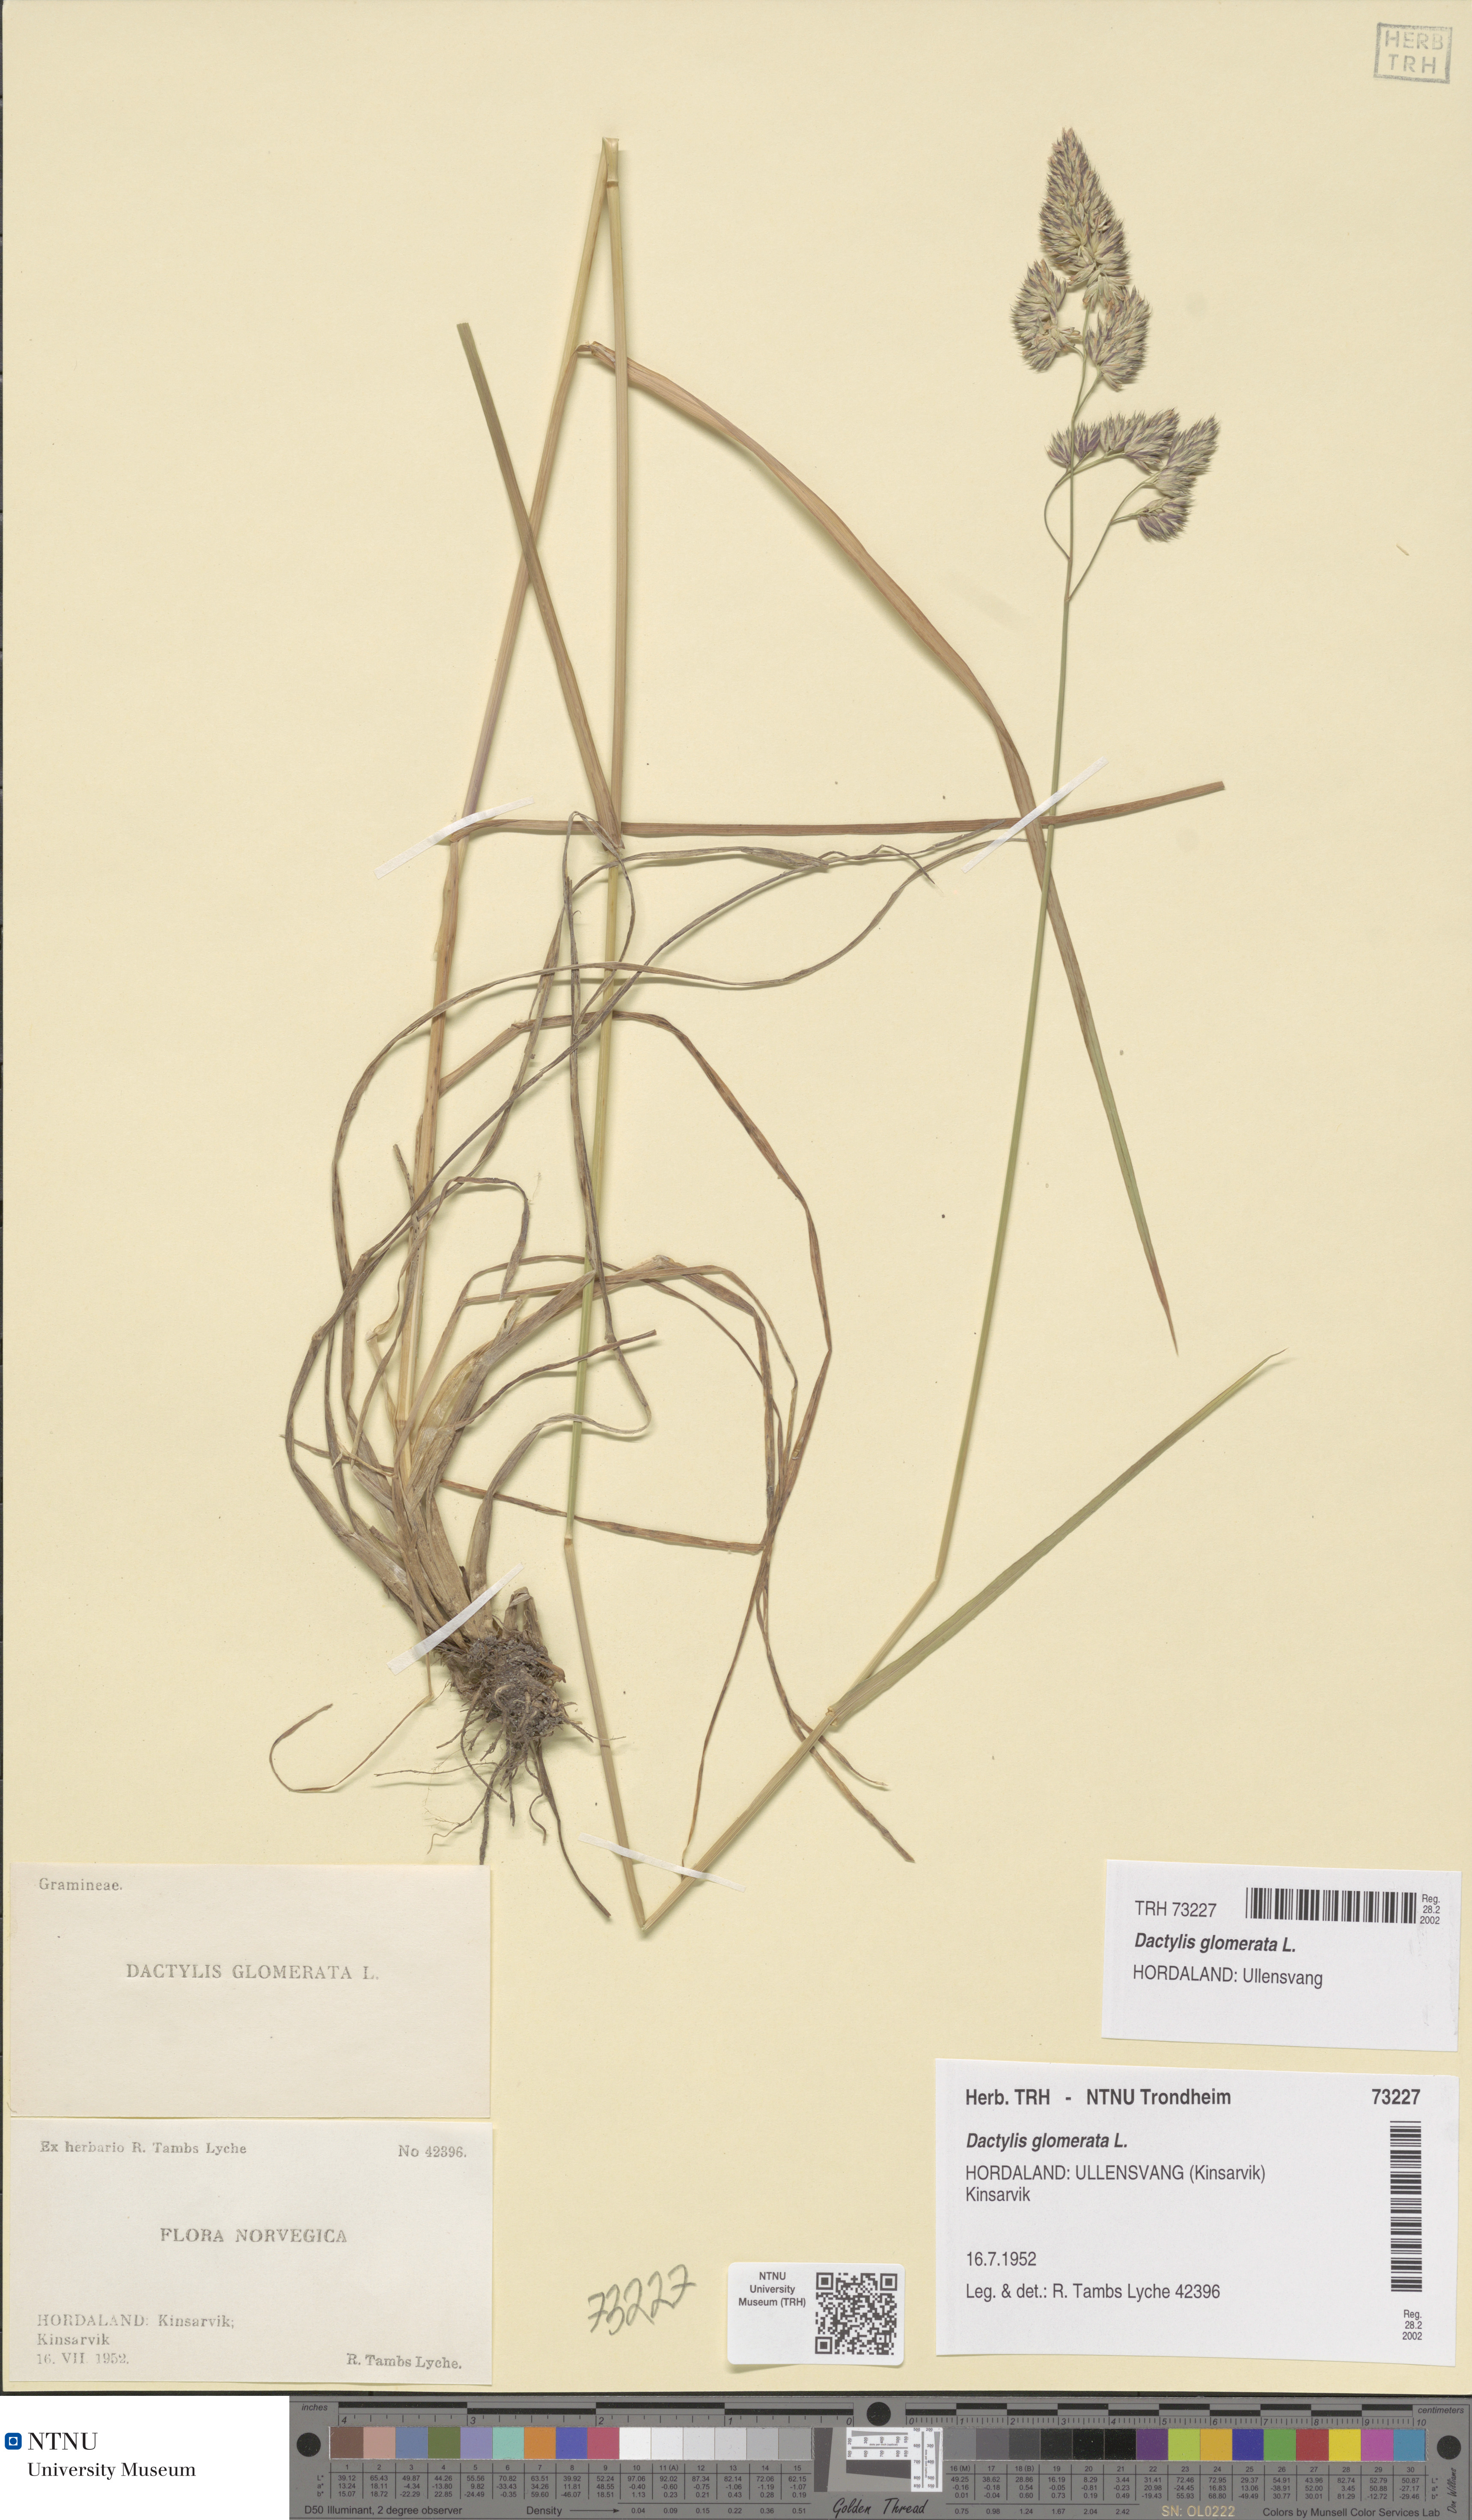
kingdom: Plantae
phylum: Tracheophyta
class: Liliopsida
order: Poales
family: Poaceae
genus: Dactylis
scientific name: Dactylis glomerata
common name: Orchardgrass
